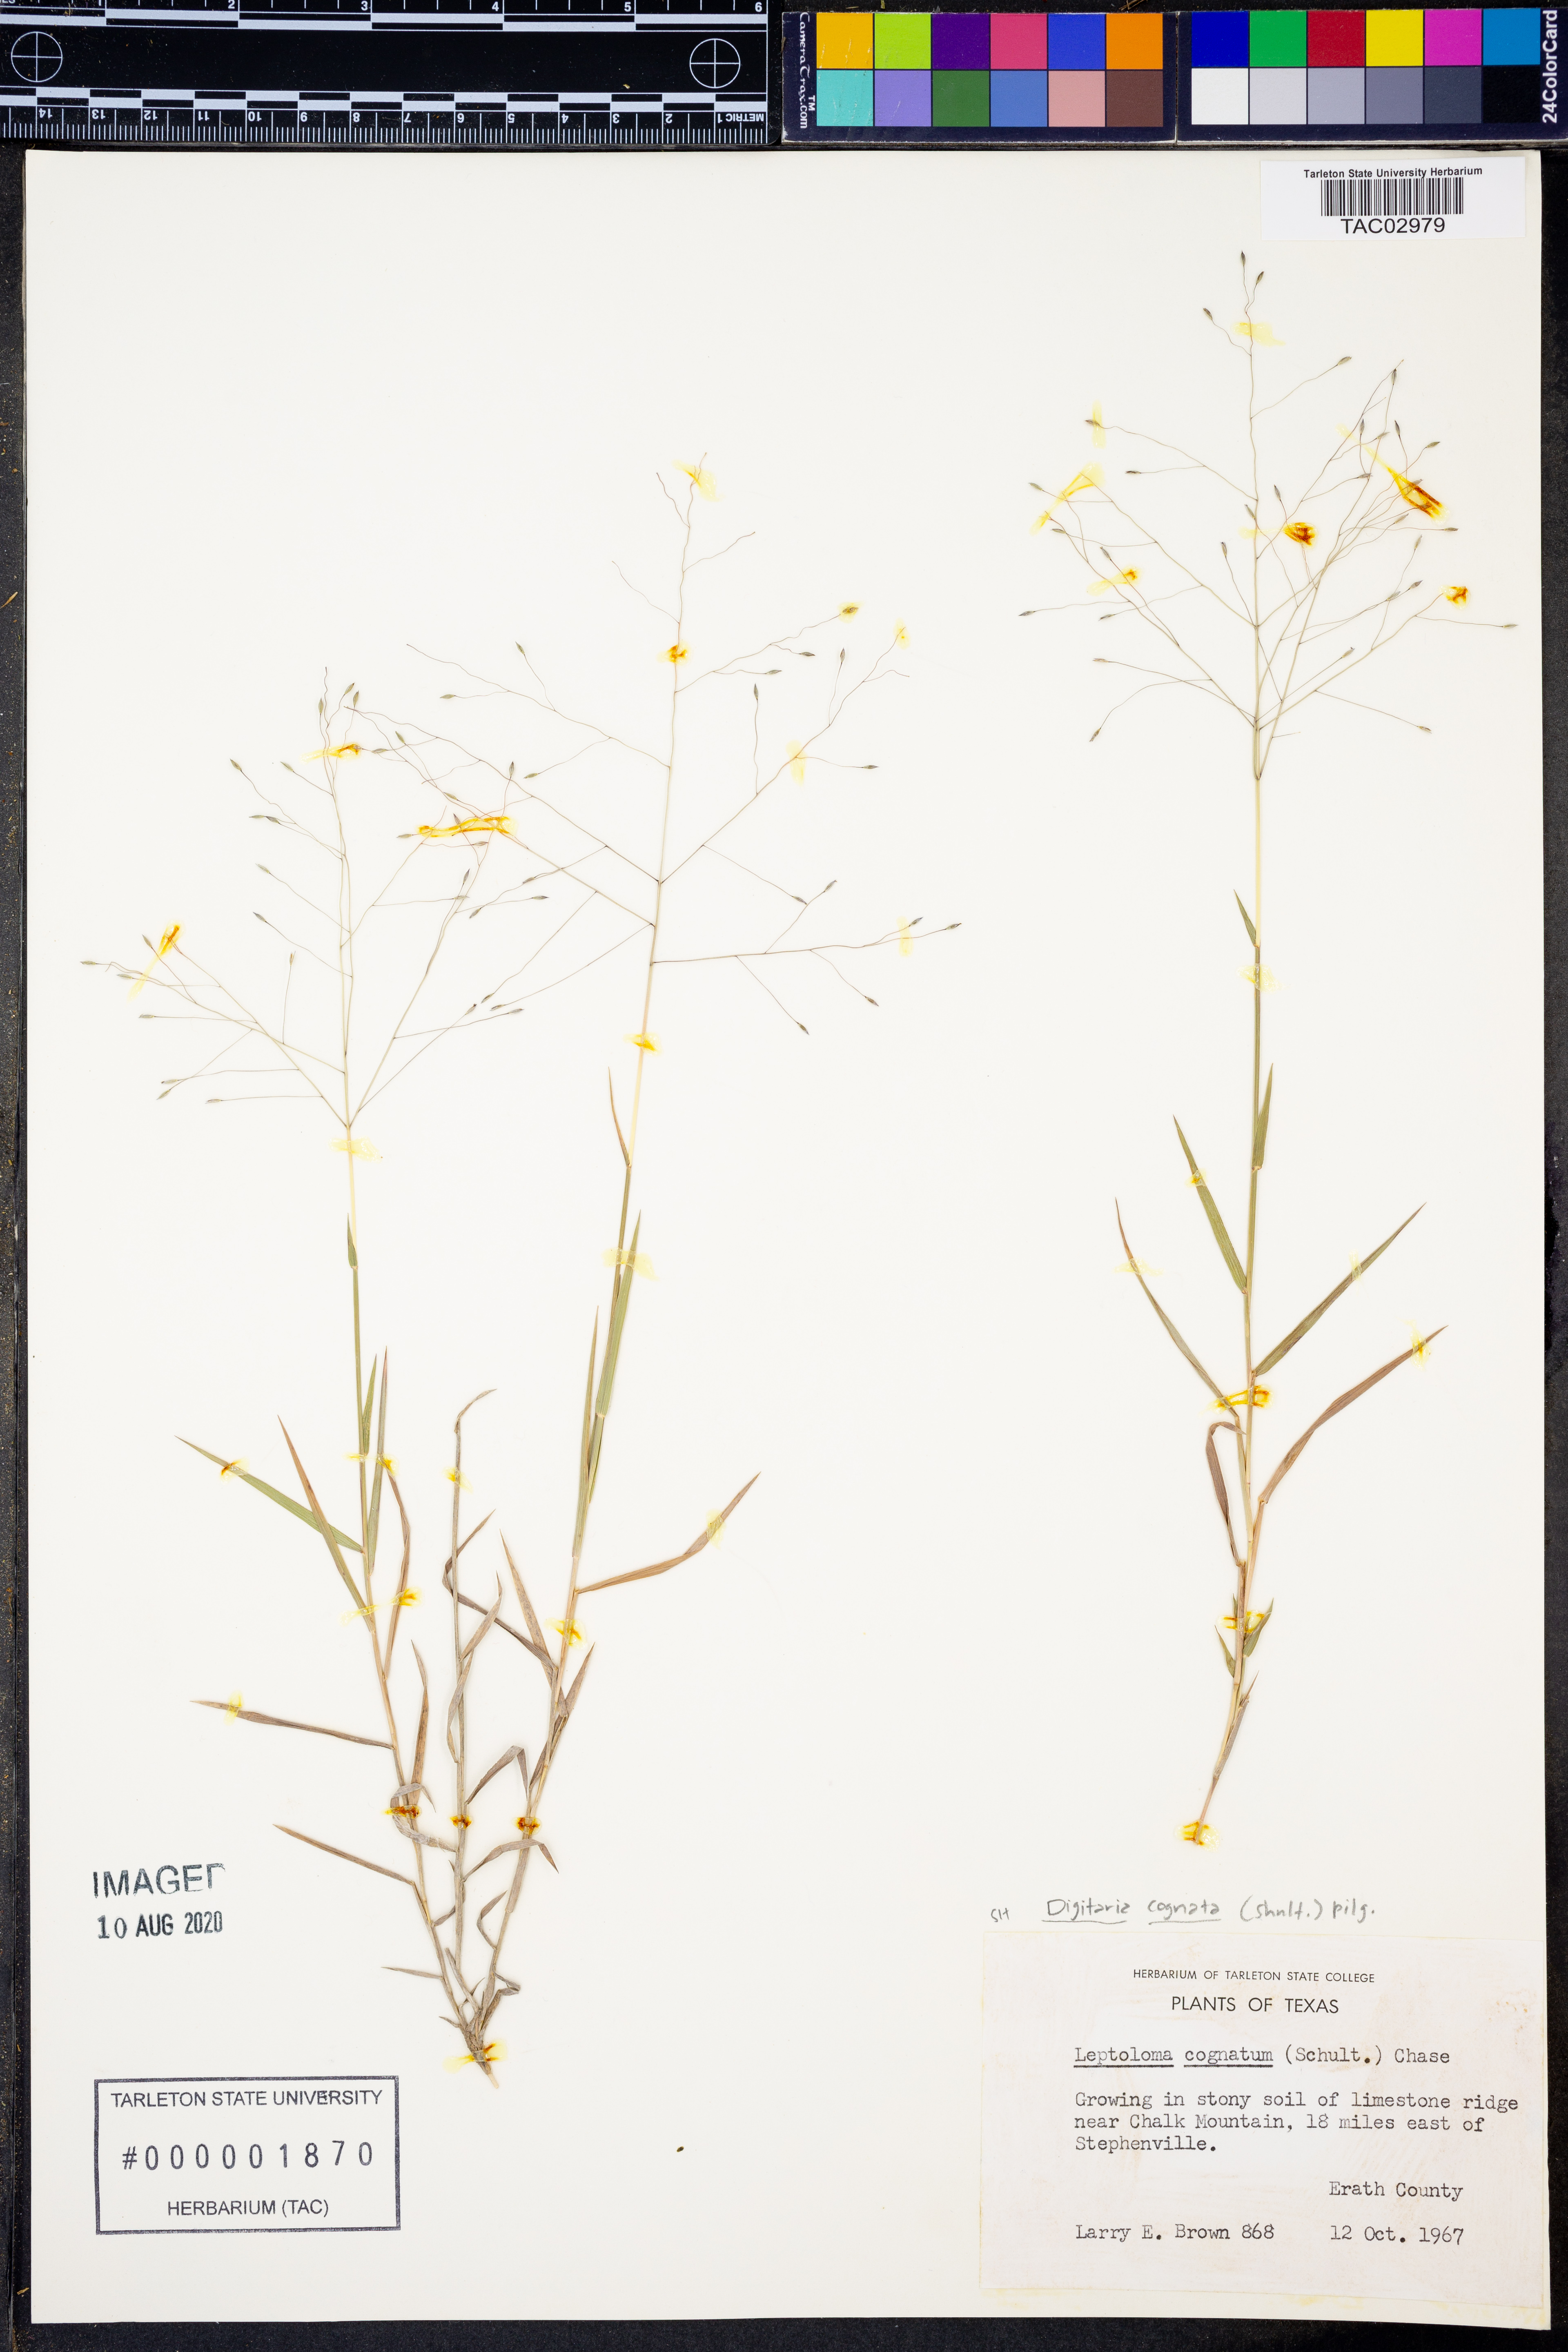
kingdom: Plantae
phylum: Tracheophyta
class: Liliopsida
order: Poales
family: Poaceae
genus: Digitaria
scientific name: Digitaria cognata
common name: Fall witchgrass
